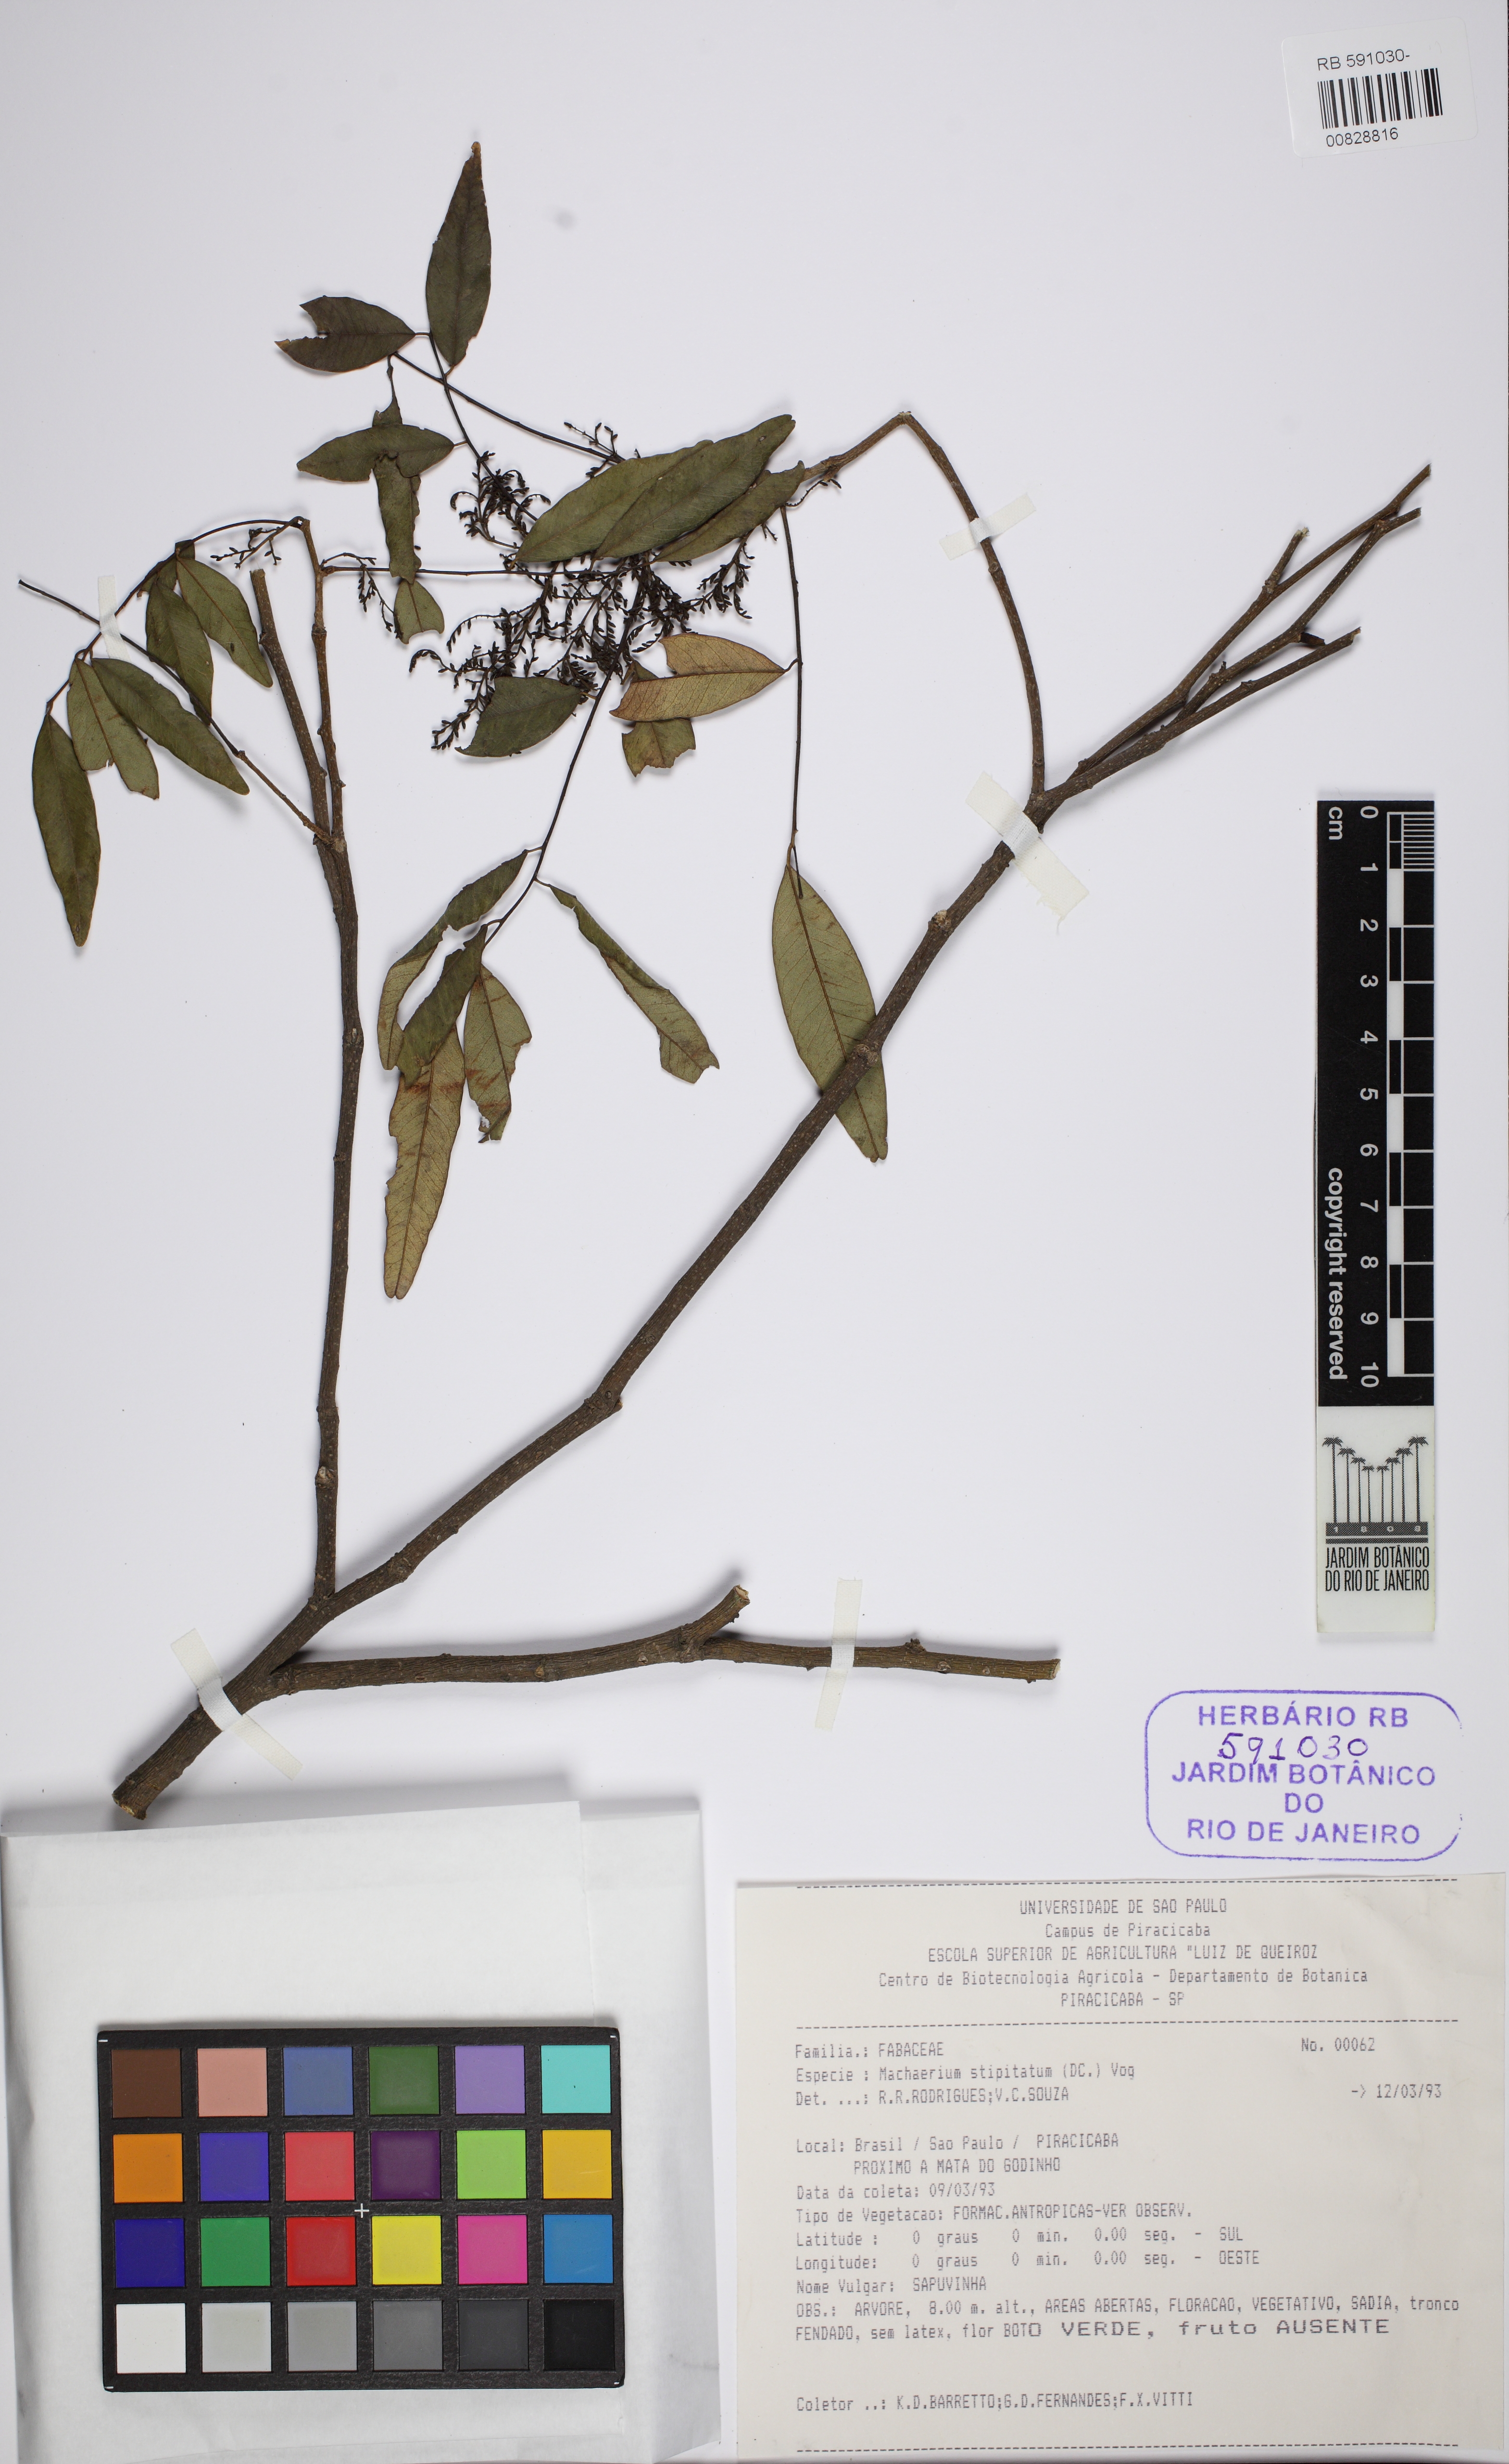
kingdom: Plantae
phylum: Tracheophyta
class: Magnoliopsida
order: Fabales
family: Fabaceae
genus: Machaerium
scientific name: Machaerium stipitatum
